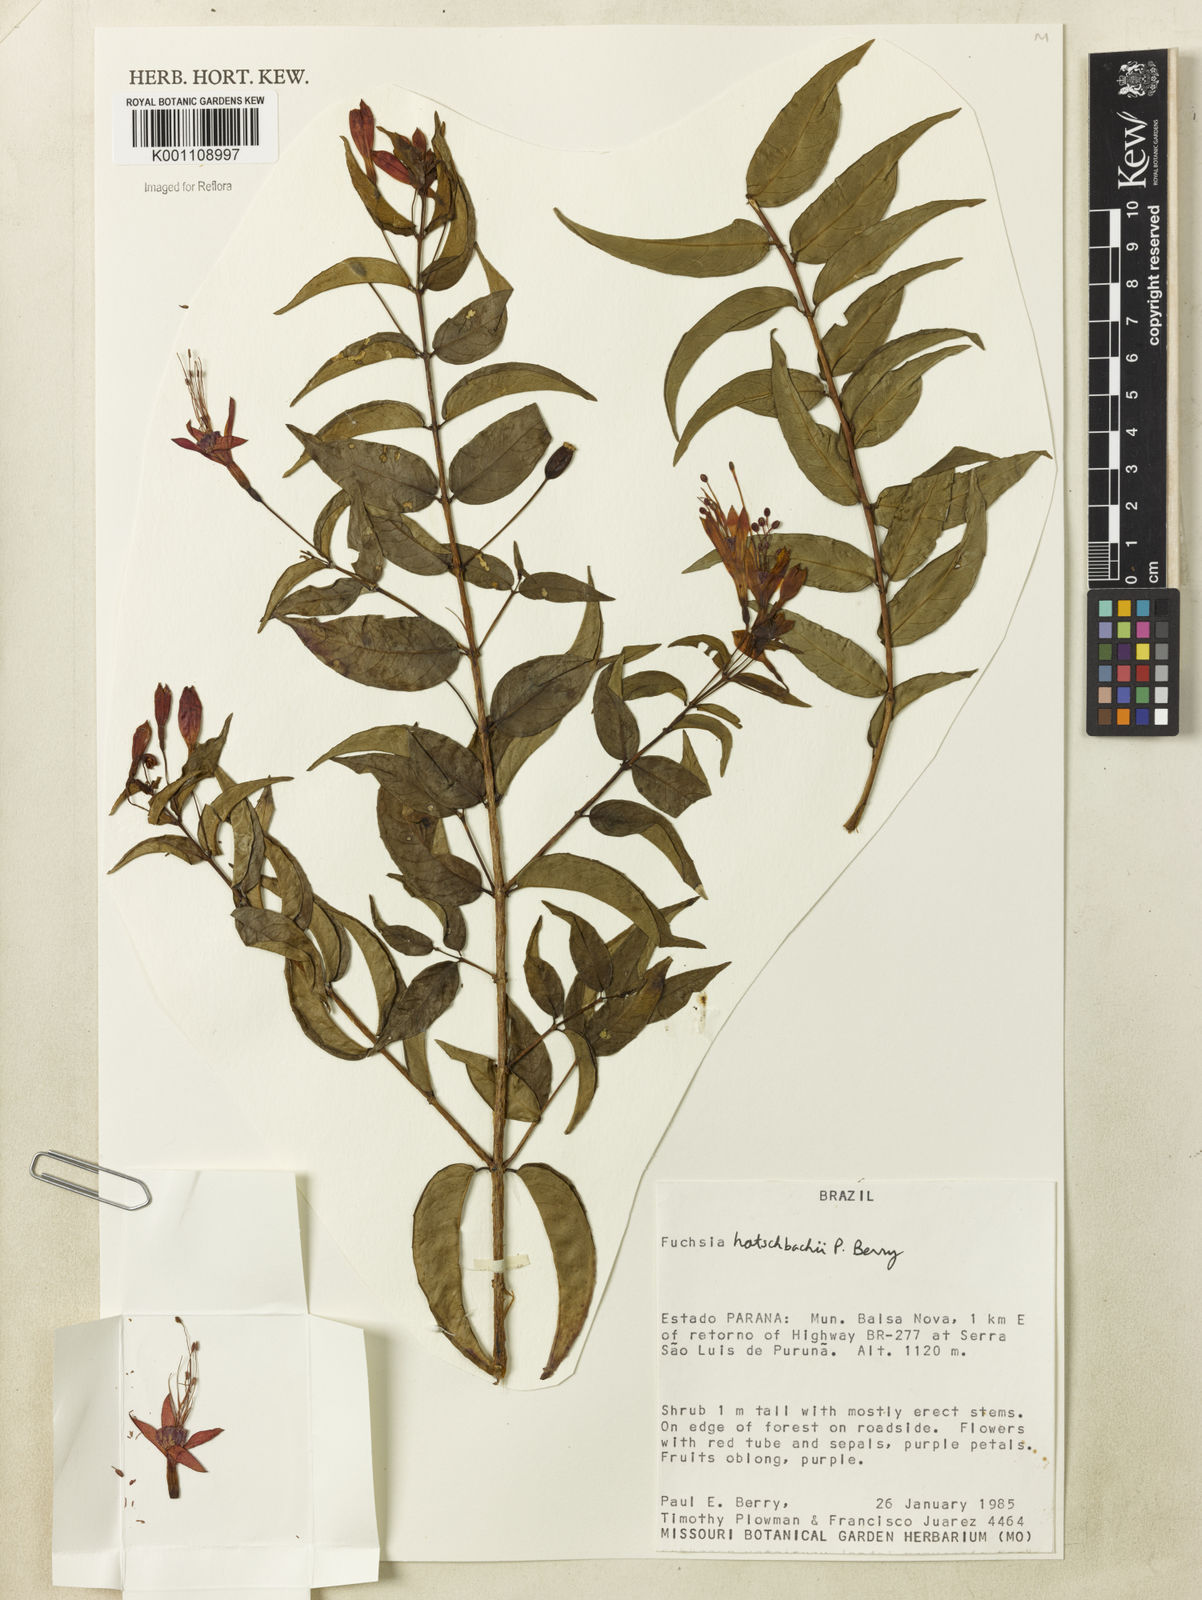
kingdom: Plantae
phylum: Tracheophyta
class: Magnoliopsida
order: Myrtales
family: Onagraceae
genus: Fuchsia
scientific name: Fuchsia hatschbachii
